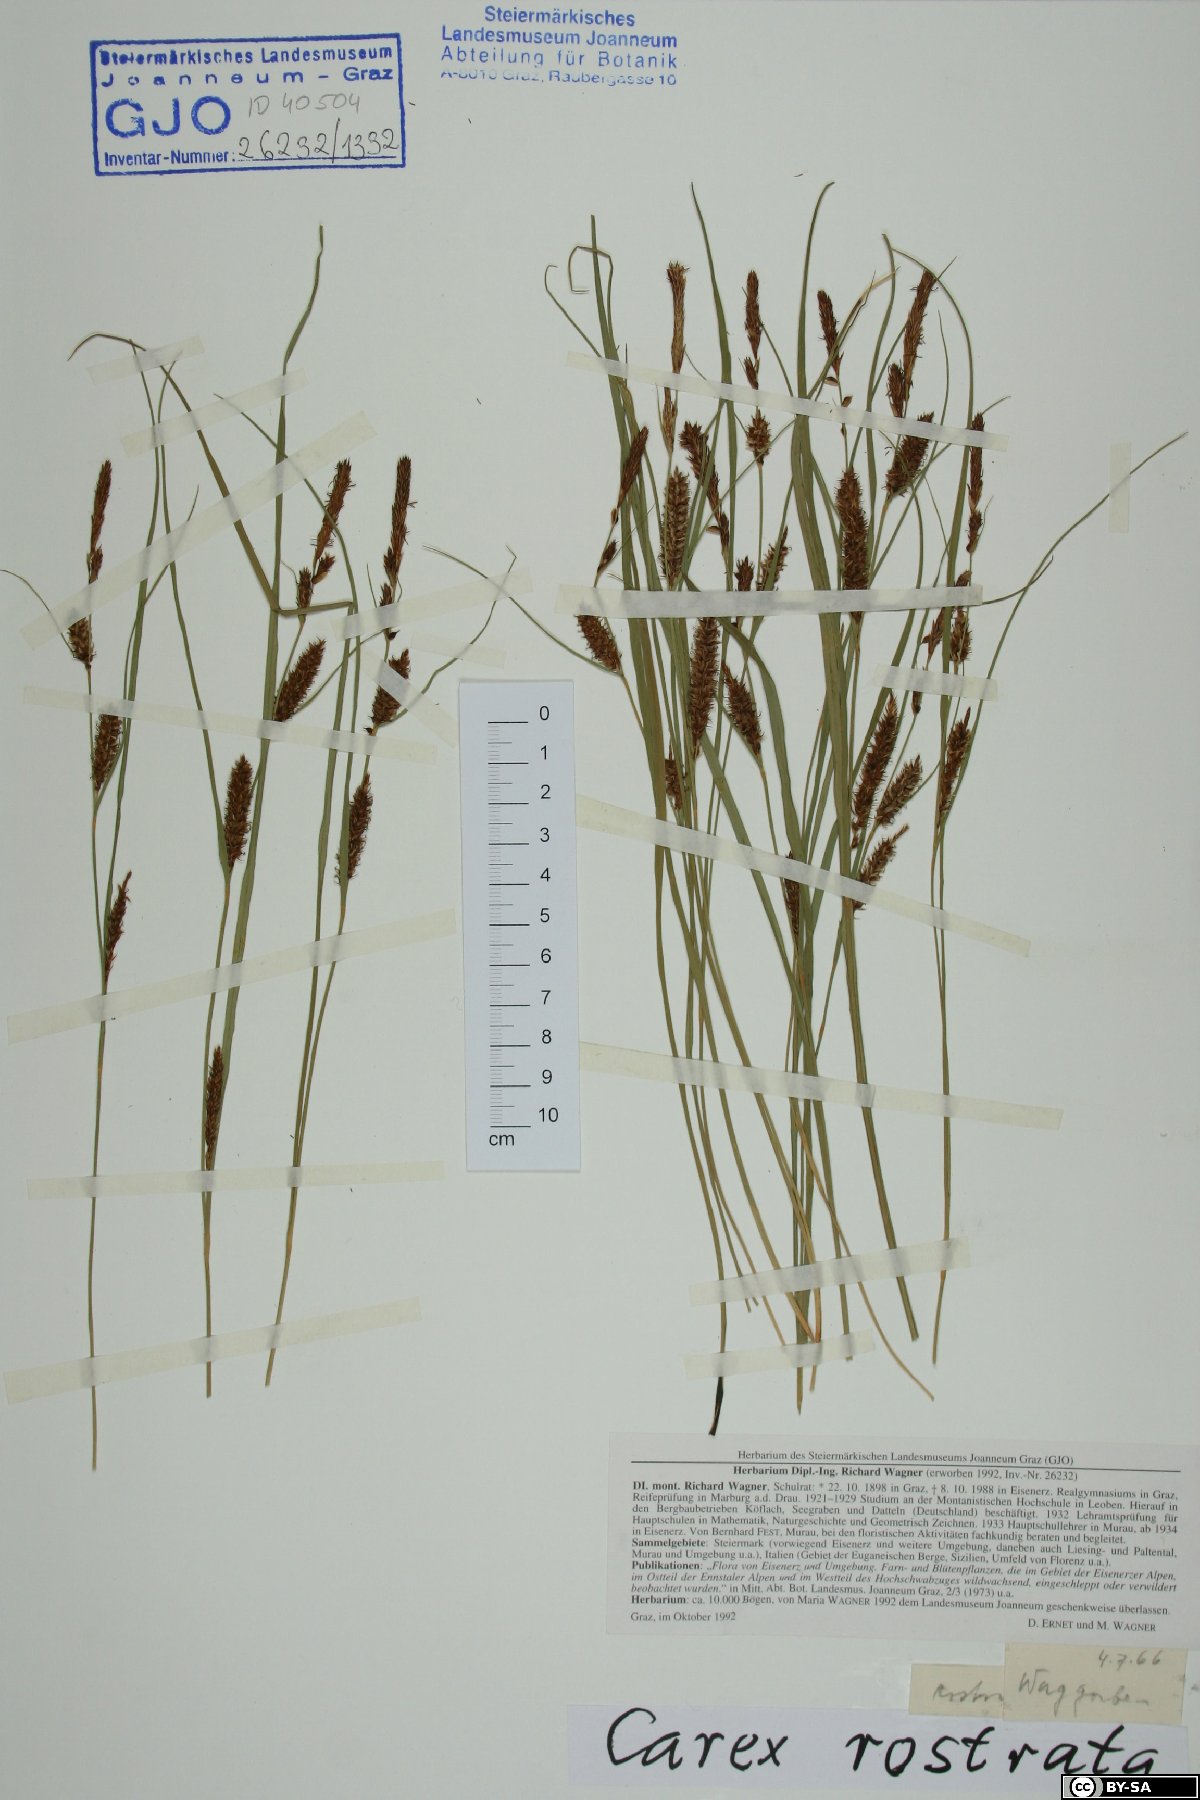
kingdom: Plantae
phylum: Tracheophyta
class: Liliopsida
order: Poales
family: Cyperaceae
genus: Carex
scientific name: Carex rostrata
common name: Bottle sedge
